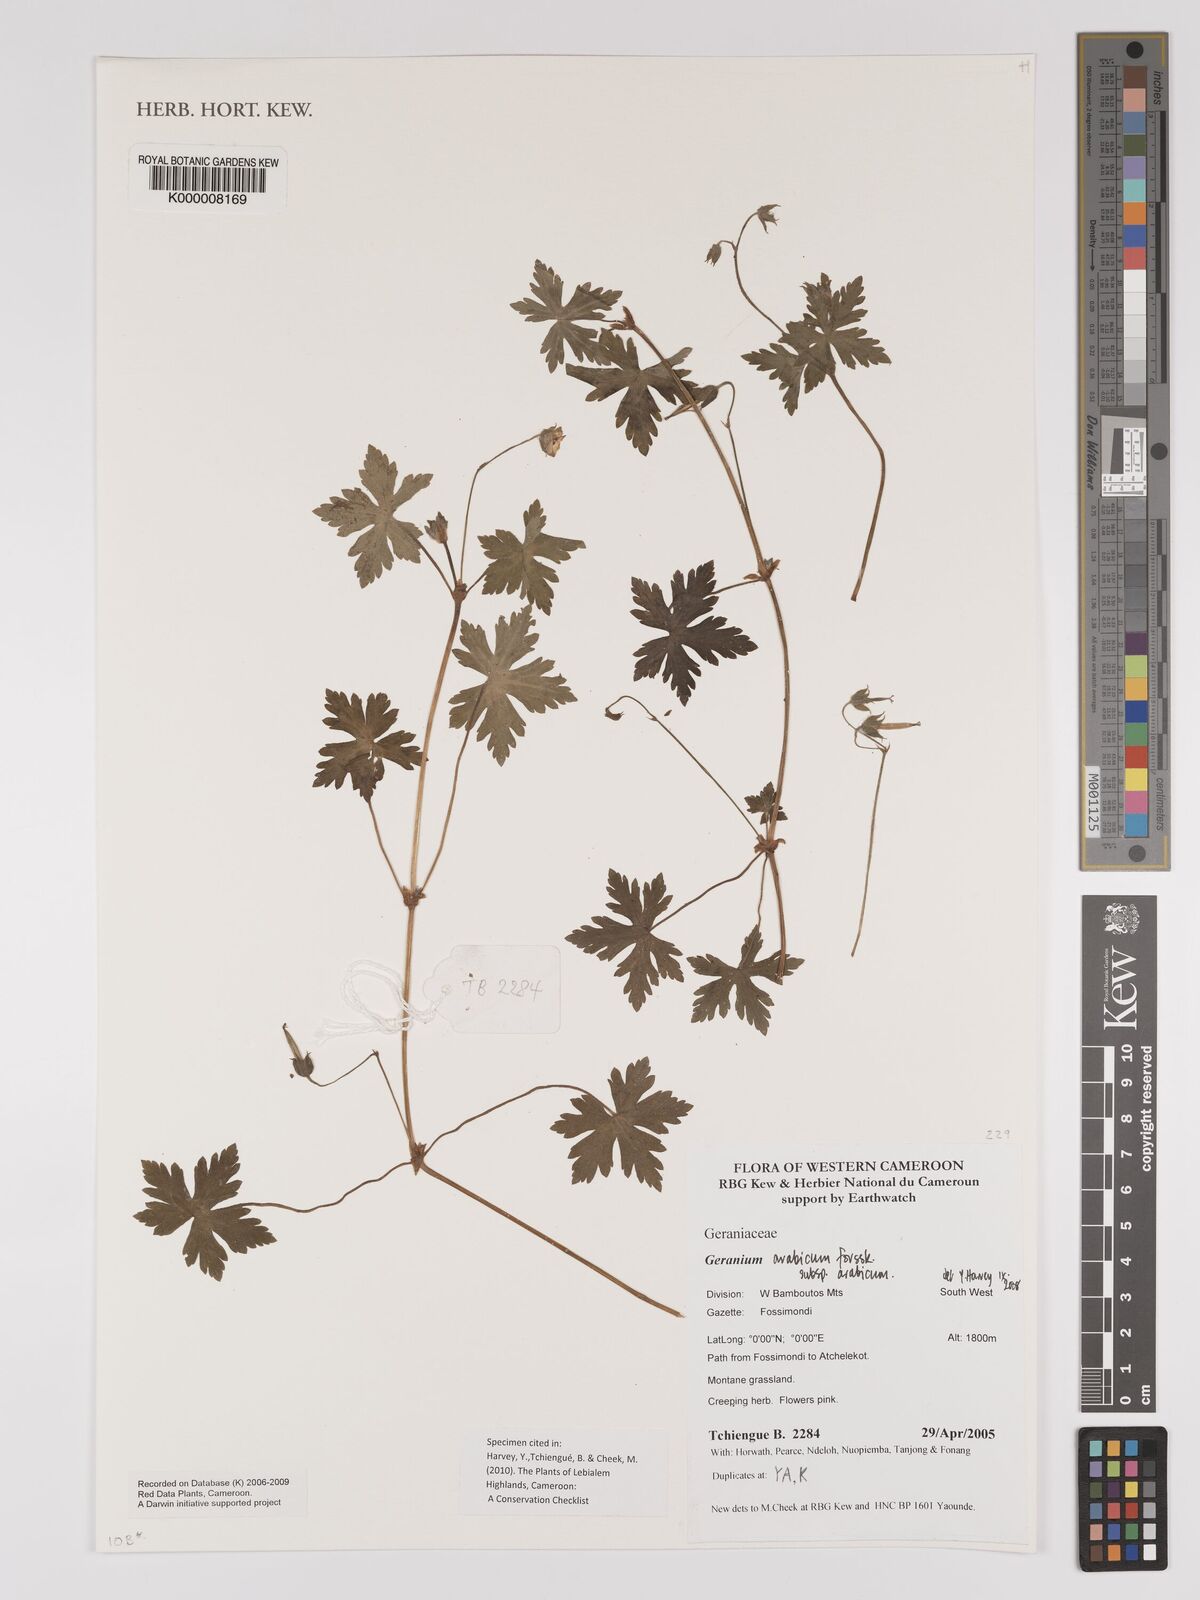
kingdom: Plantae
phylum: Tracheophyta
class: Magnoliopsida
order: Geraniales
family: Geraniaceae
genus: Geranium
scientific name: Geranium arabicum
